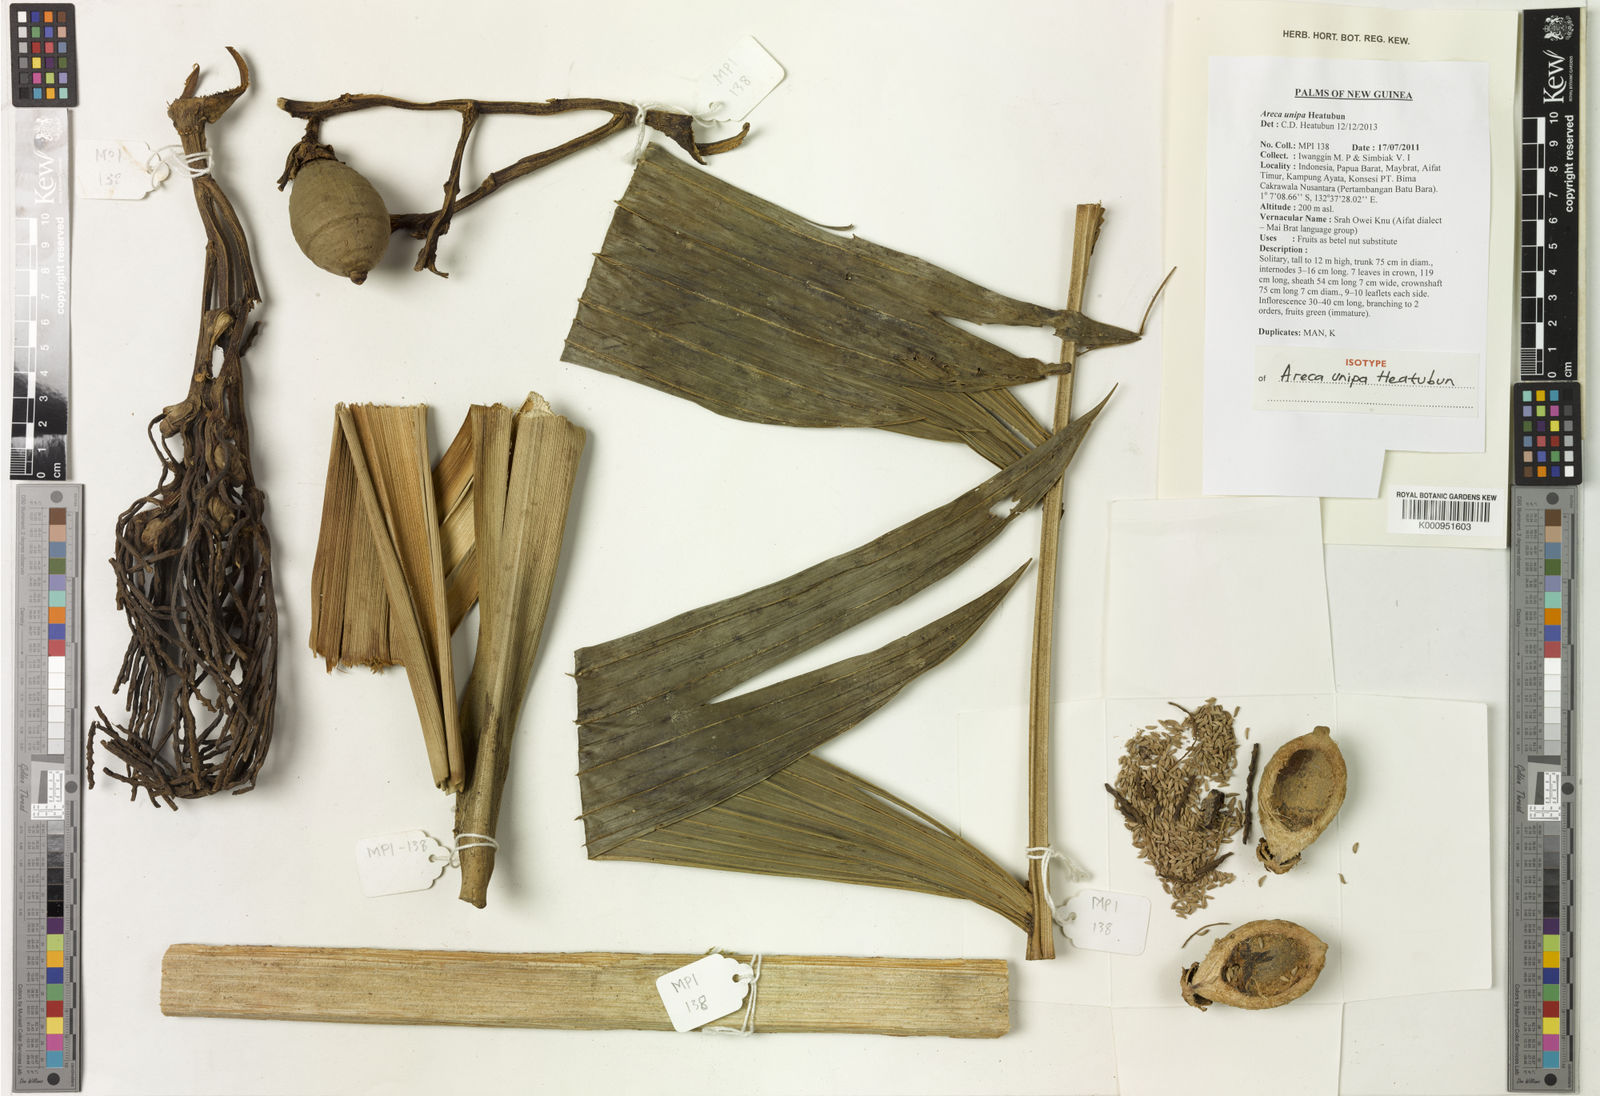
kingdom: Plantae
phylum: Tracheophyta
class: Liliopsida
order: Arecales
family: Arecaceae
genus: Areca
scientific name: Areca unipa
